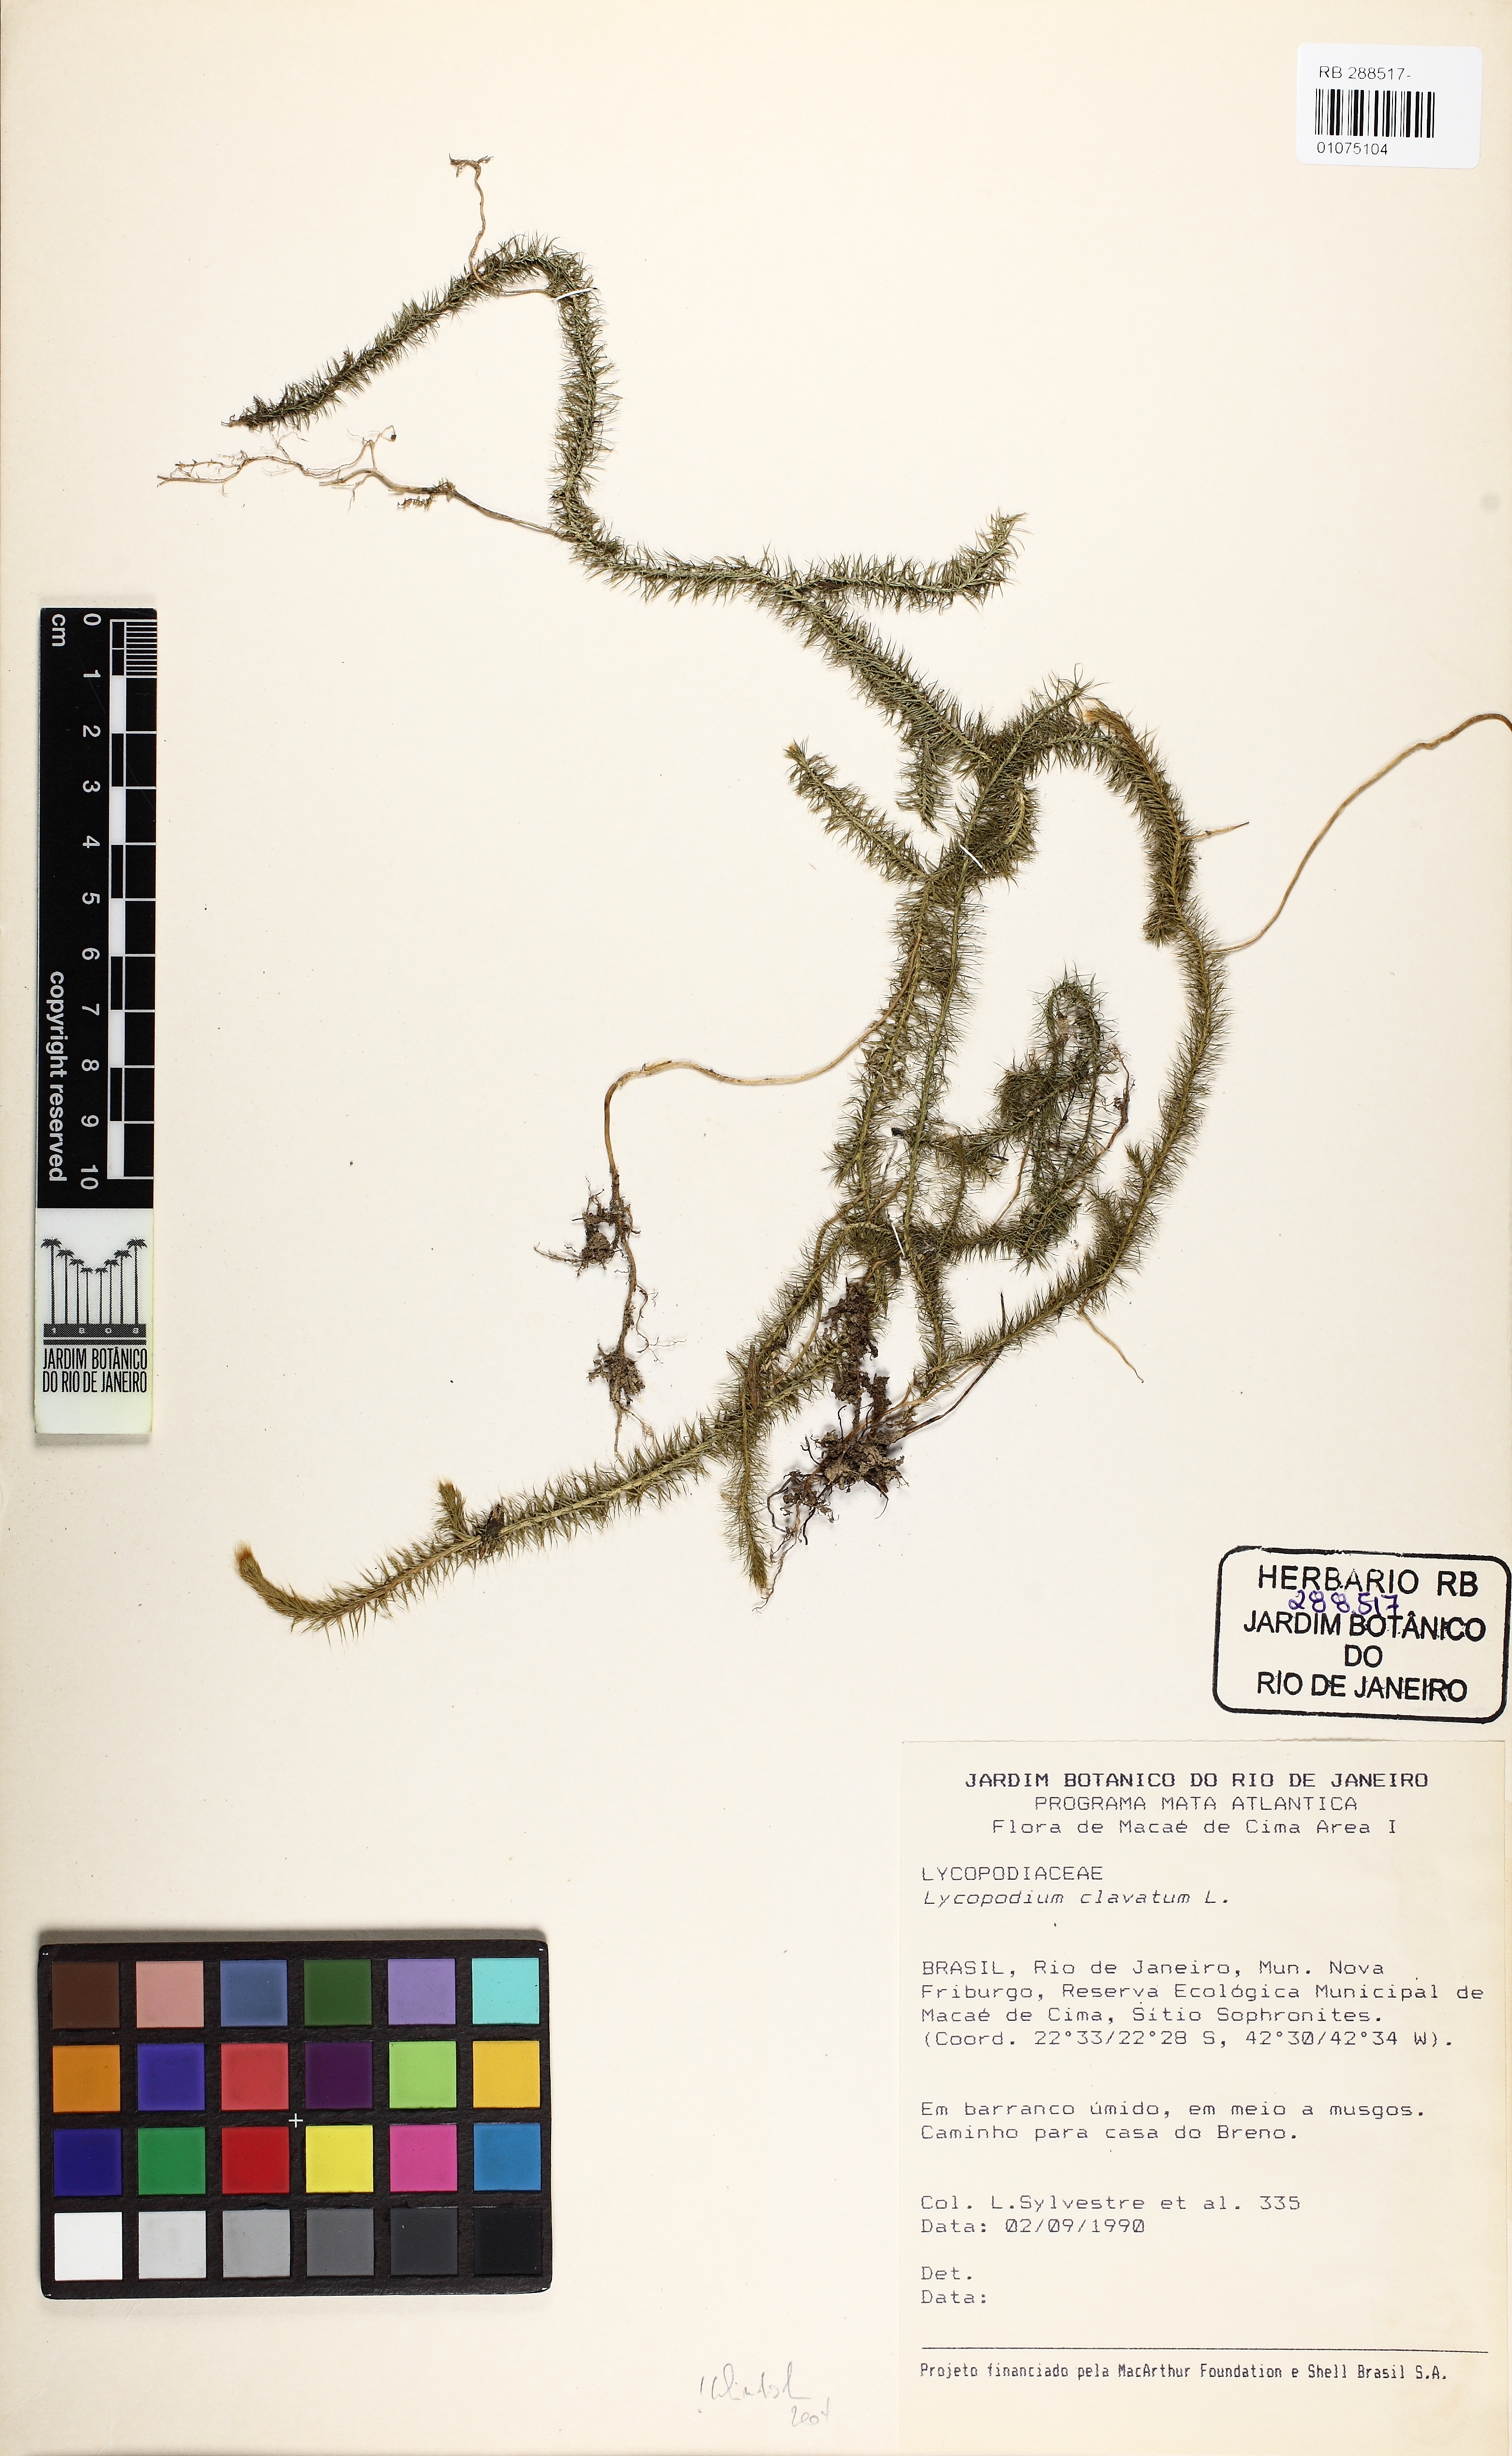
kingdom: Plantae
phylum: Tracheophyta
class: Lycopodiopsida
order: Lycopodiales
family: Lycopodiaceae
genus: Lycopodium
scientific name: Lycopodium clavatum
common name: Stag's-horn clubmoss
